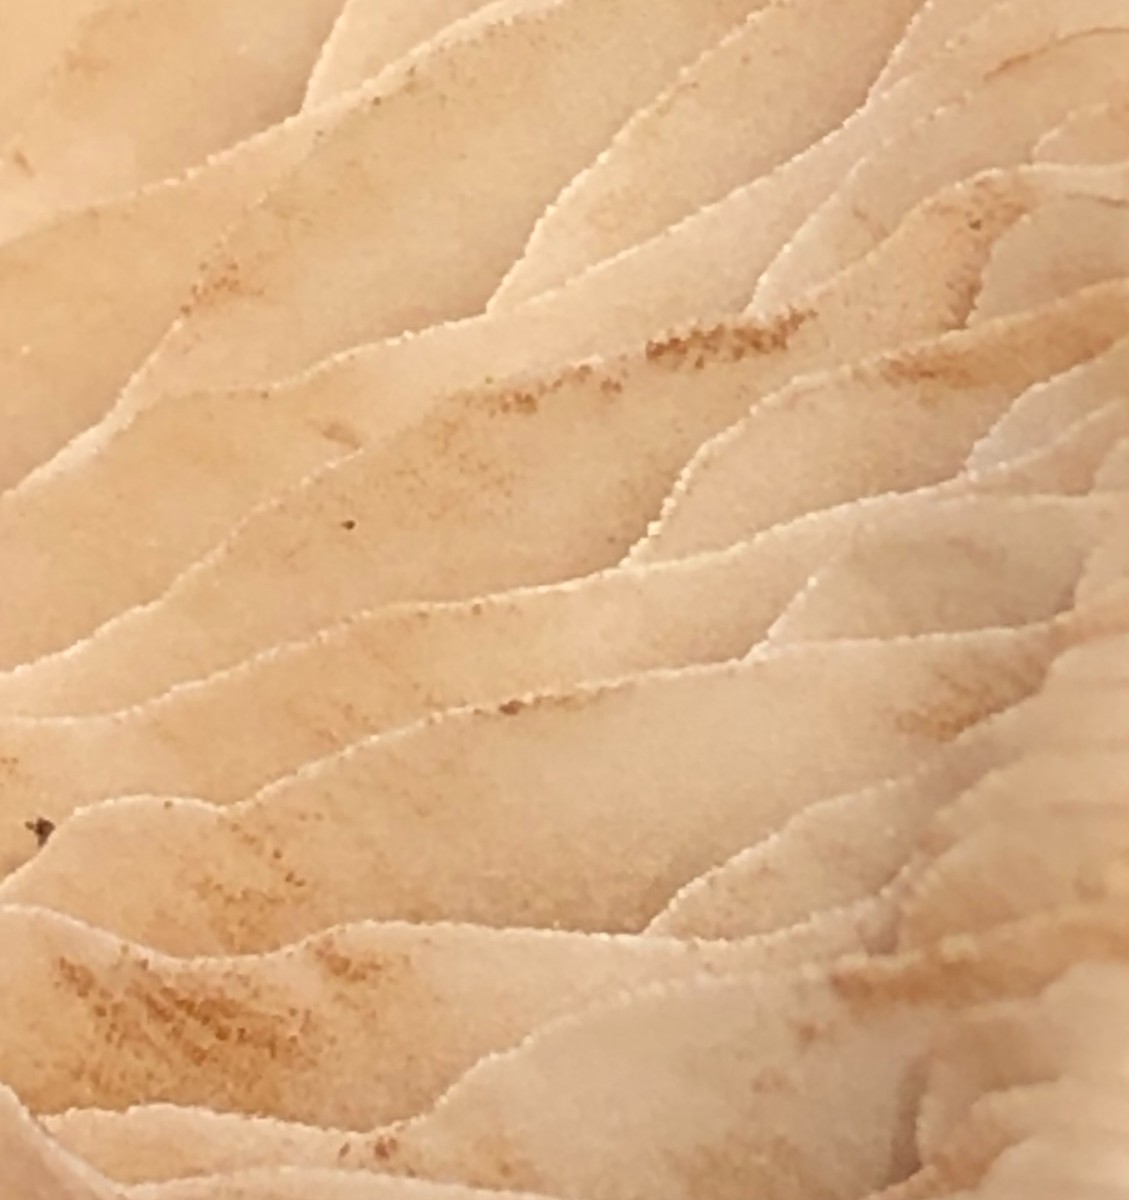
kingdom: Fungi
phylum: Basidiomycota
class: Agaricomycetes
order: Agaricales
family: Hymenogastraceae
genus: Hebeloma
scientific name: Hebeloma
